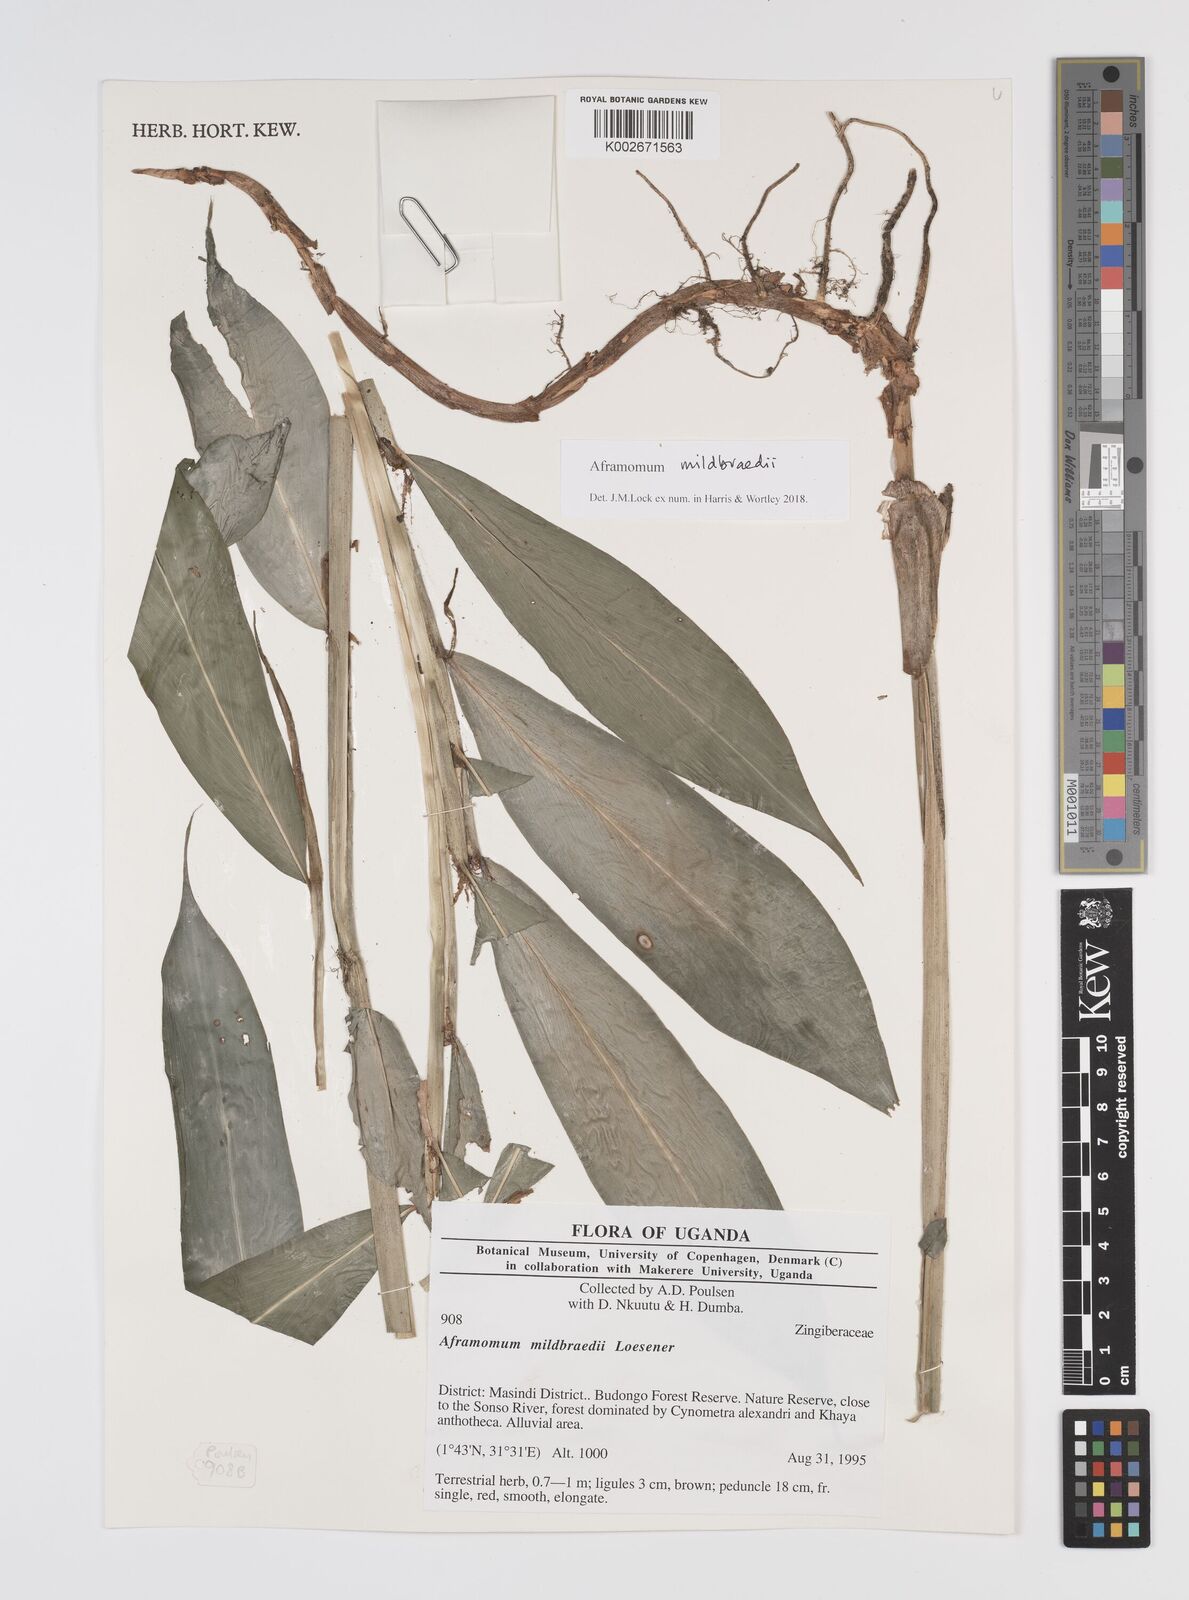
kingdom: Plantae
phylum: Tracheophyta
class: Liliopsida
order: Zingiberales
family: Zingiberaceae
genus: Aframomum
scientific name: Aframomum mildbraedii
